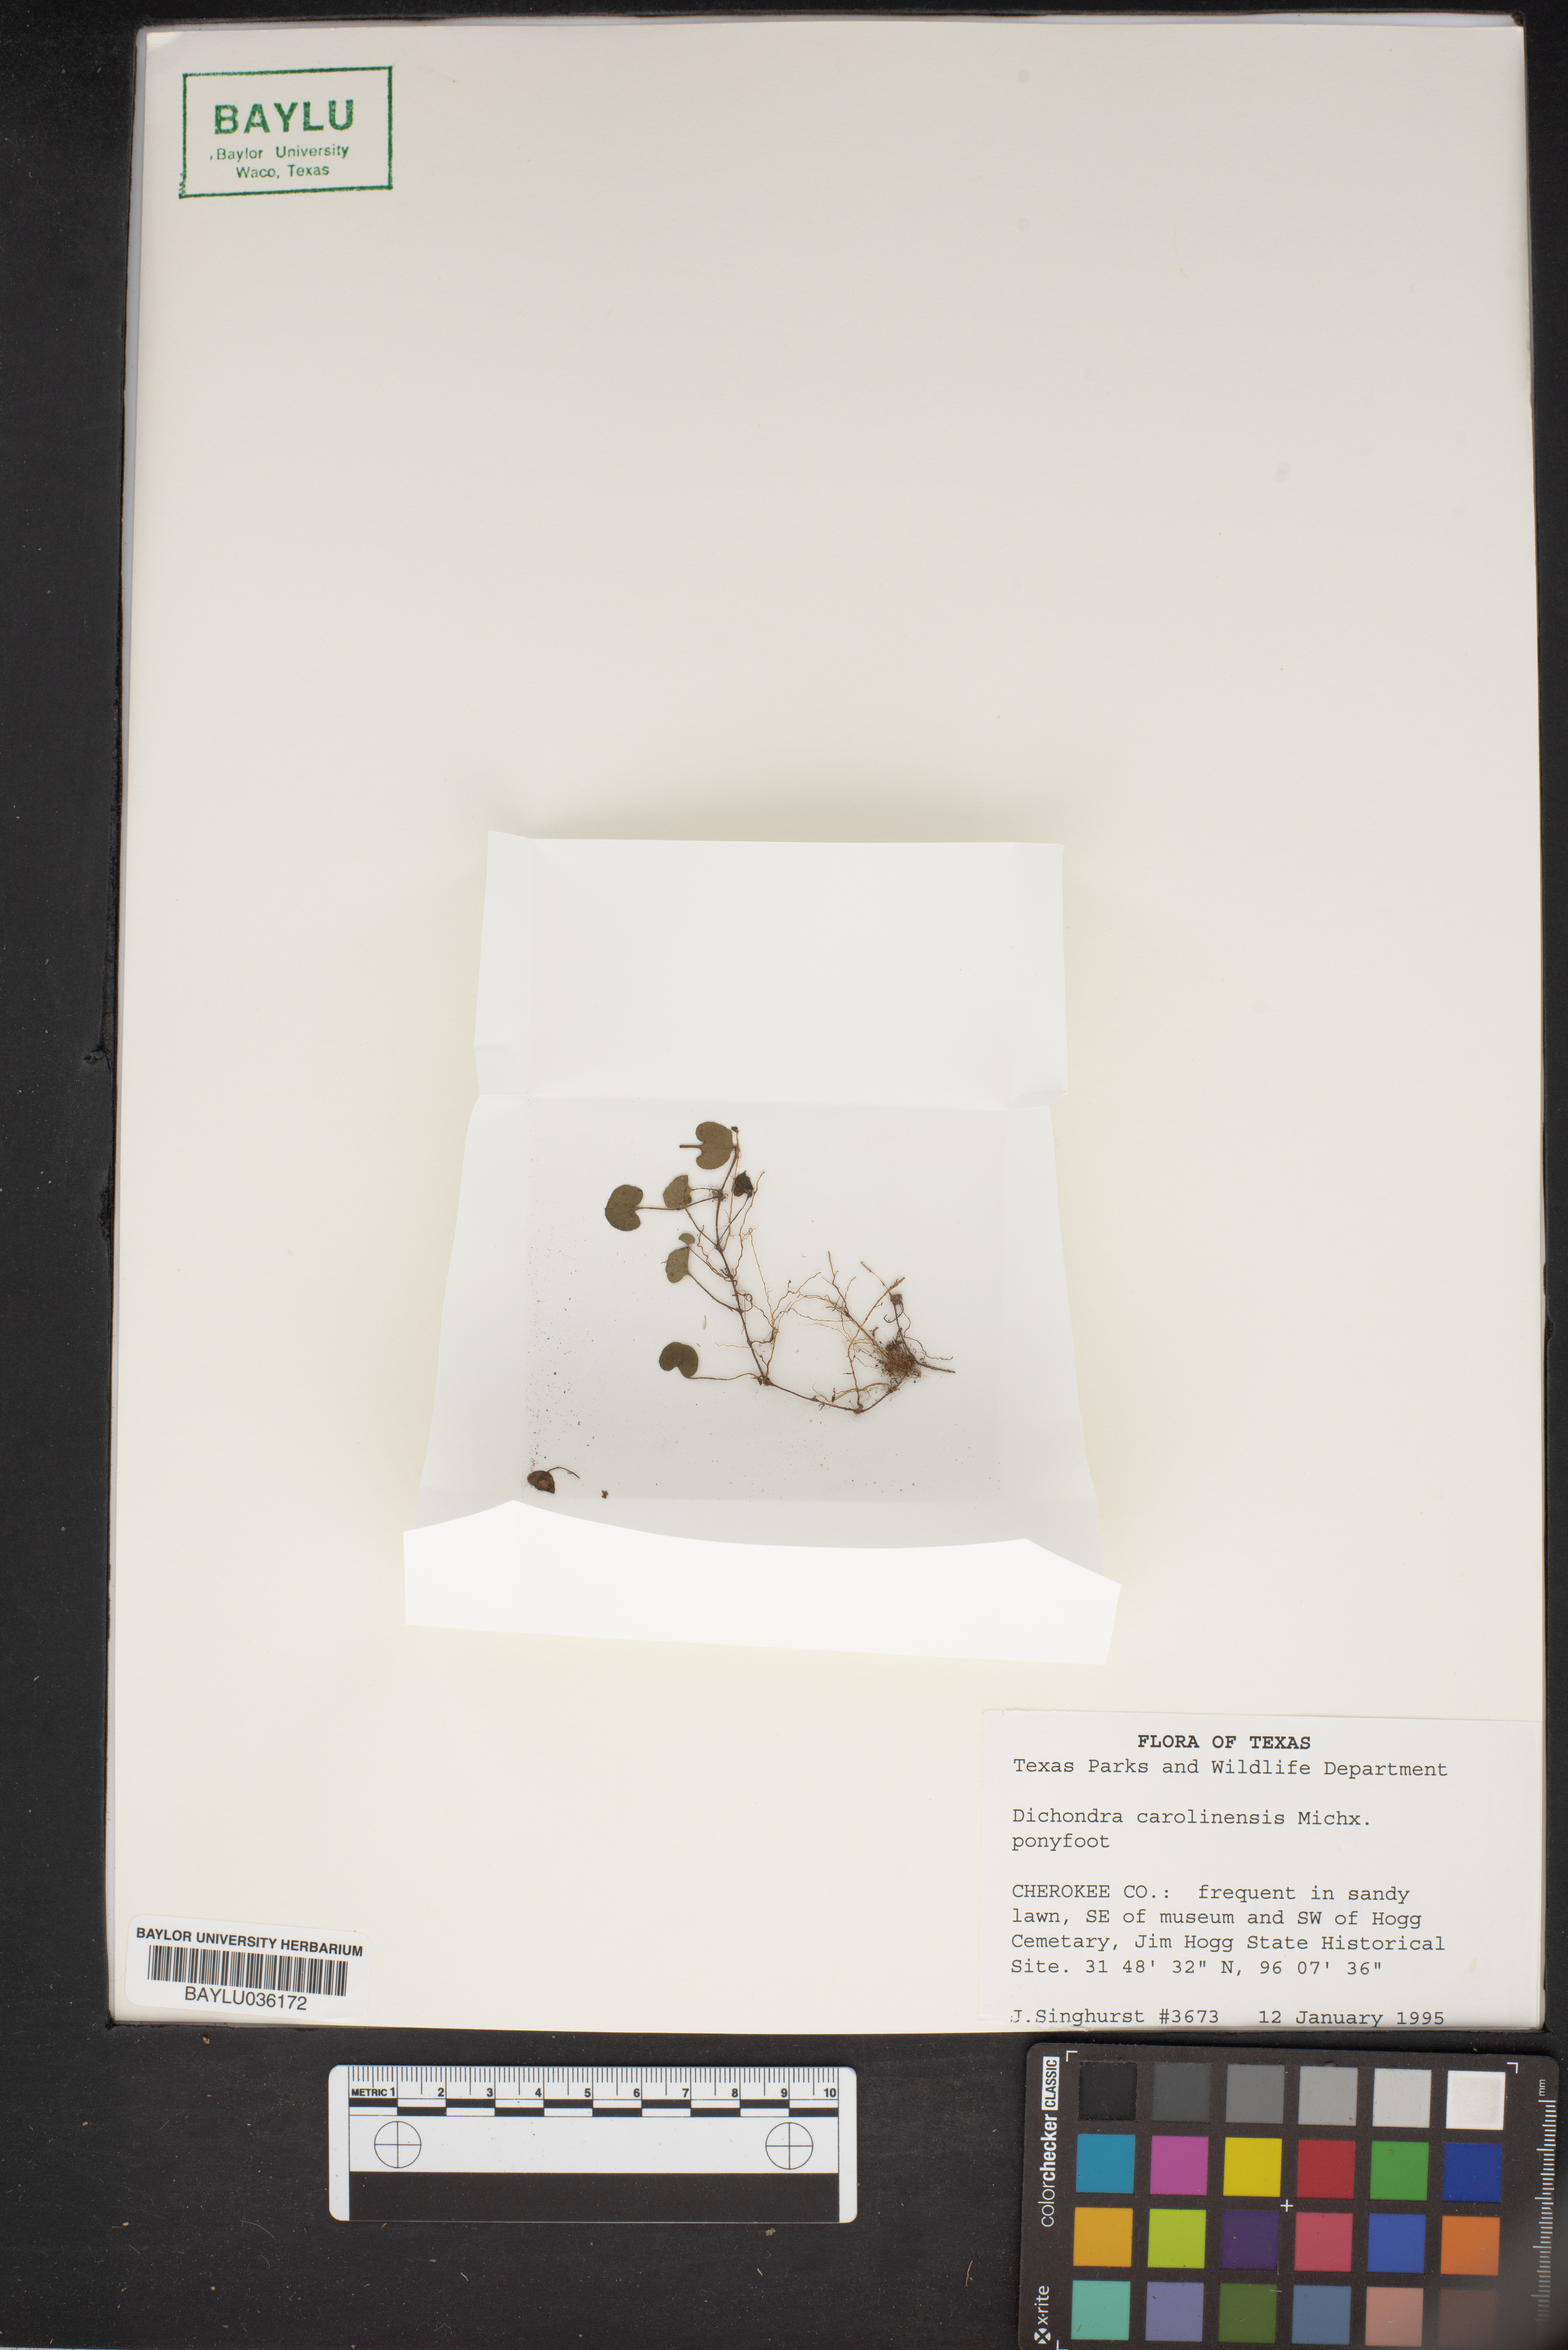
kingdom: Plantae
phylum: Tracheophyta
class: Magnoliopsida
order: Solanales
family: Convolvulaceae
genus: Dichondra
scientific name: Dichondra carolinensis
